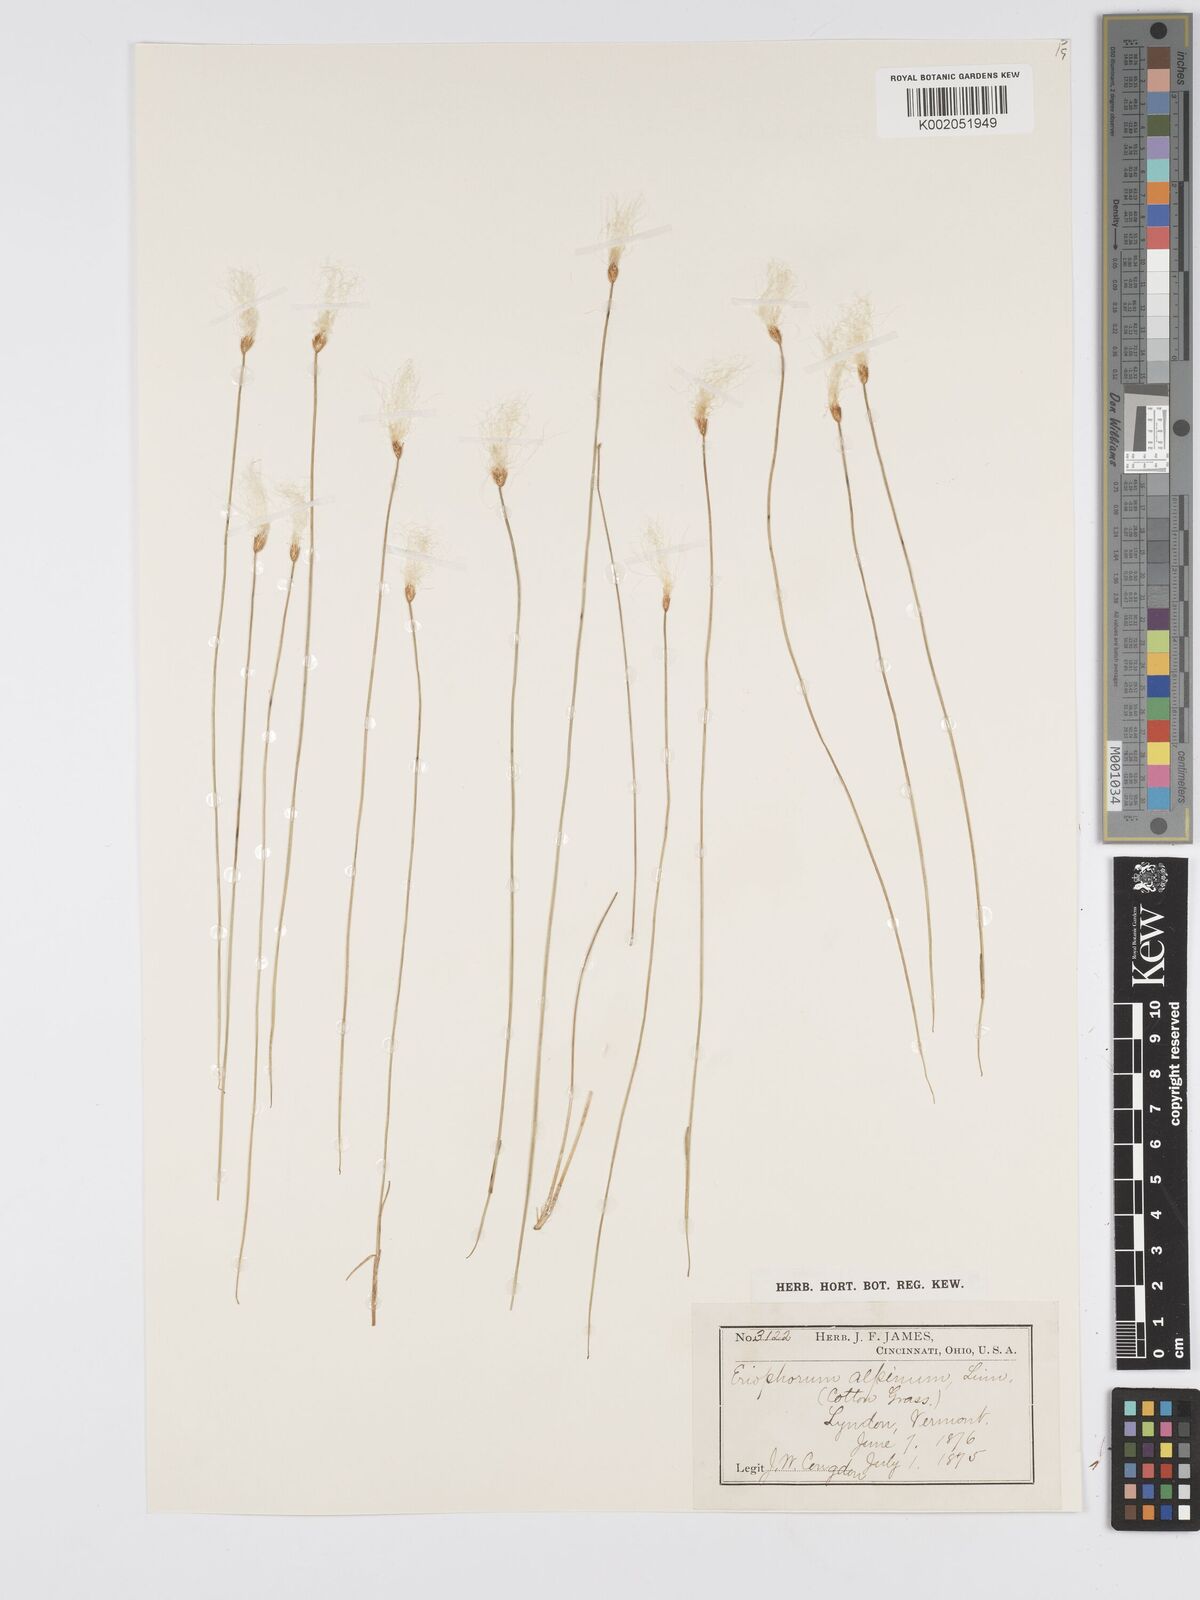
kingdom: Plantae
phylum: Tracheophyta
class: Liliopsida
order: Poales
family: Cyperaceae
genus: Trichophorum
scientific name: Trichophorum alpinum
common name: Alpine bulrush
